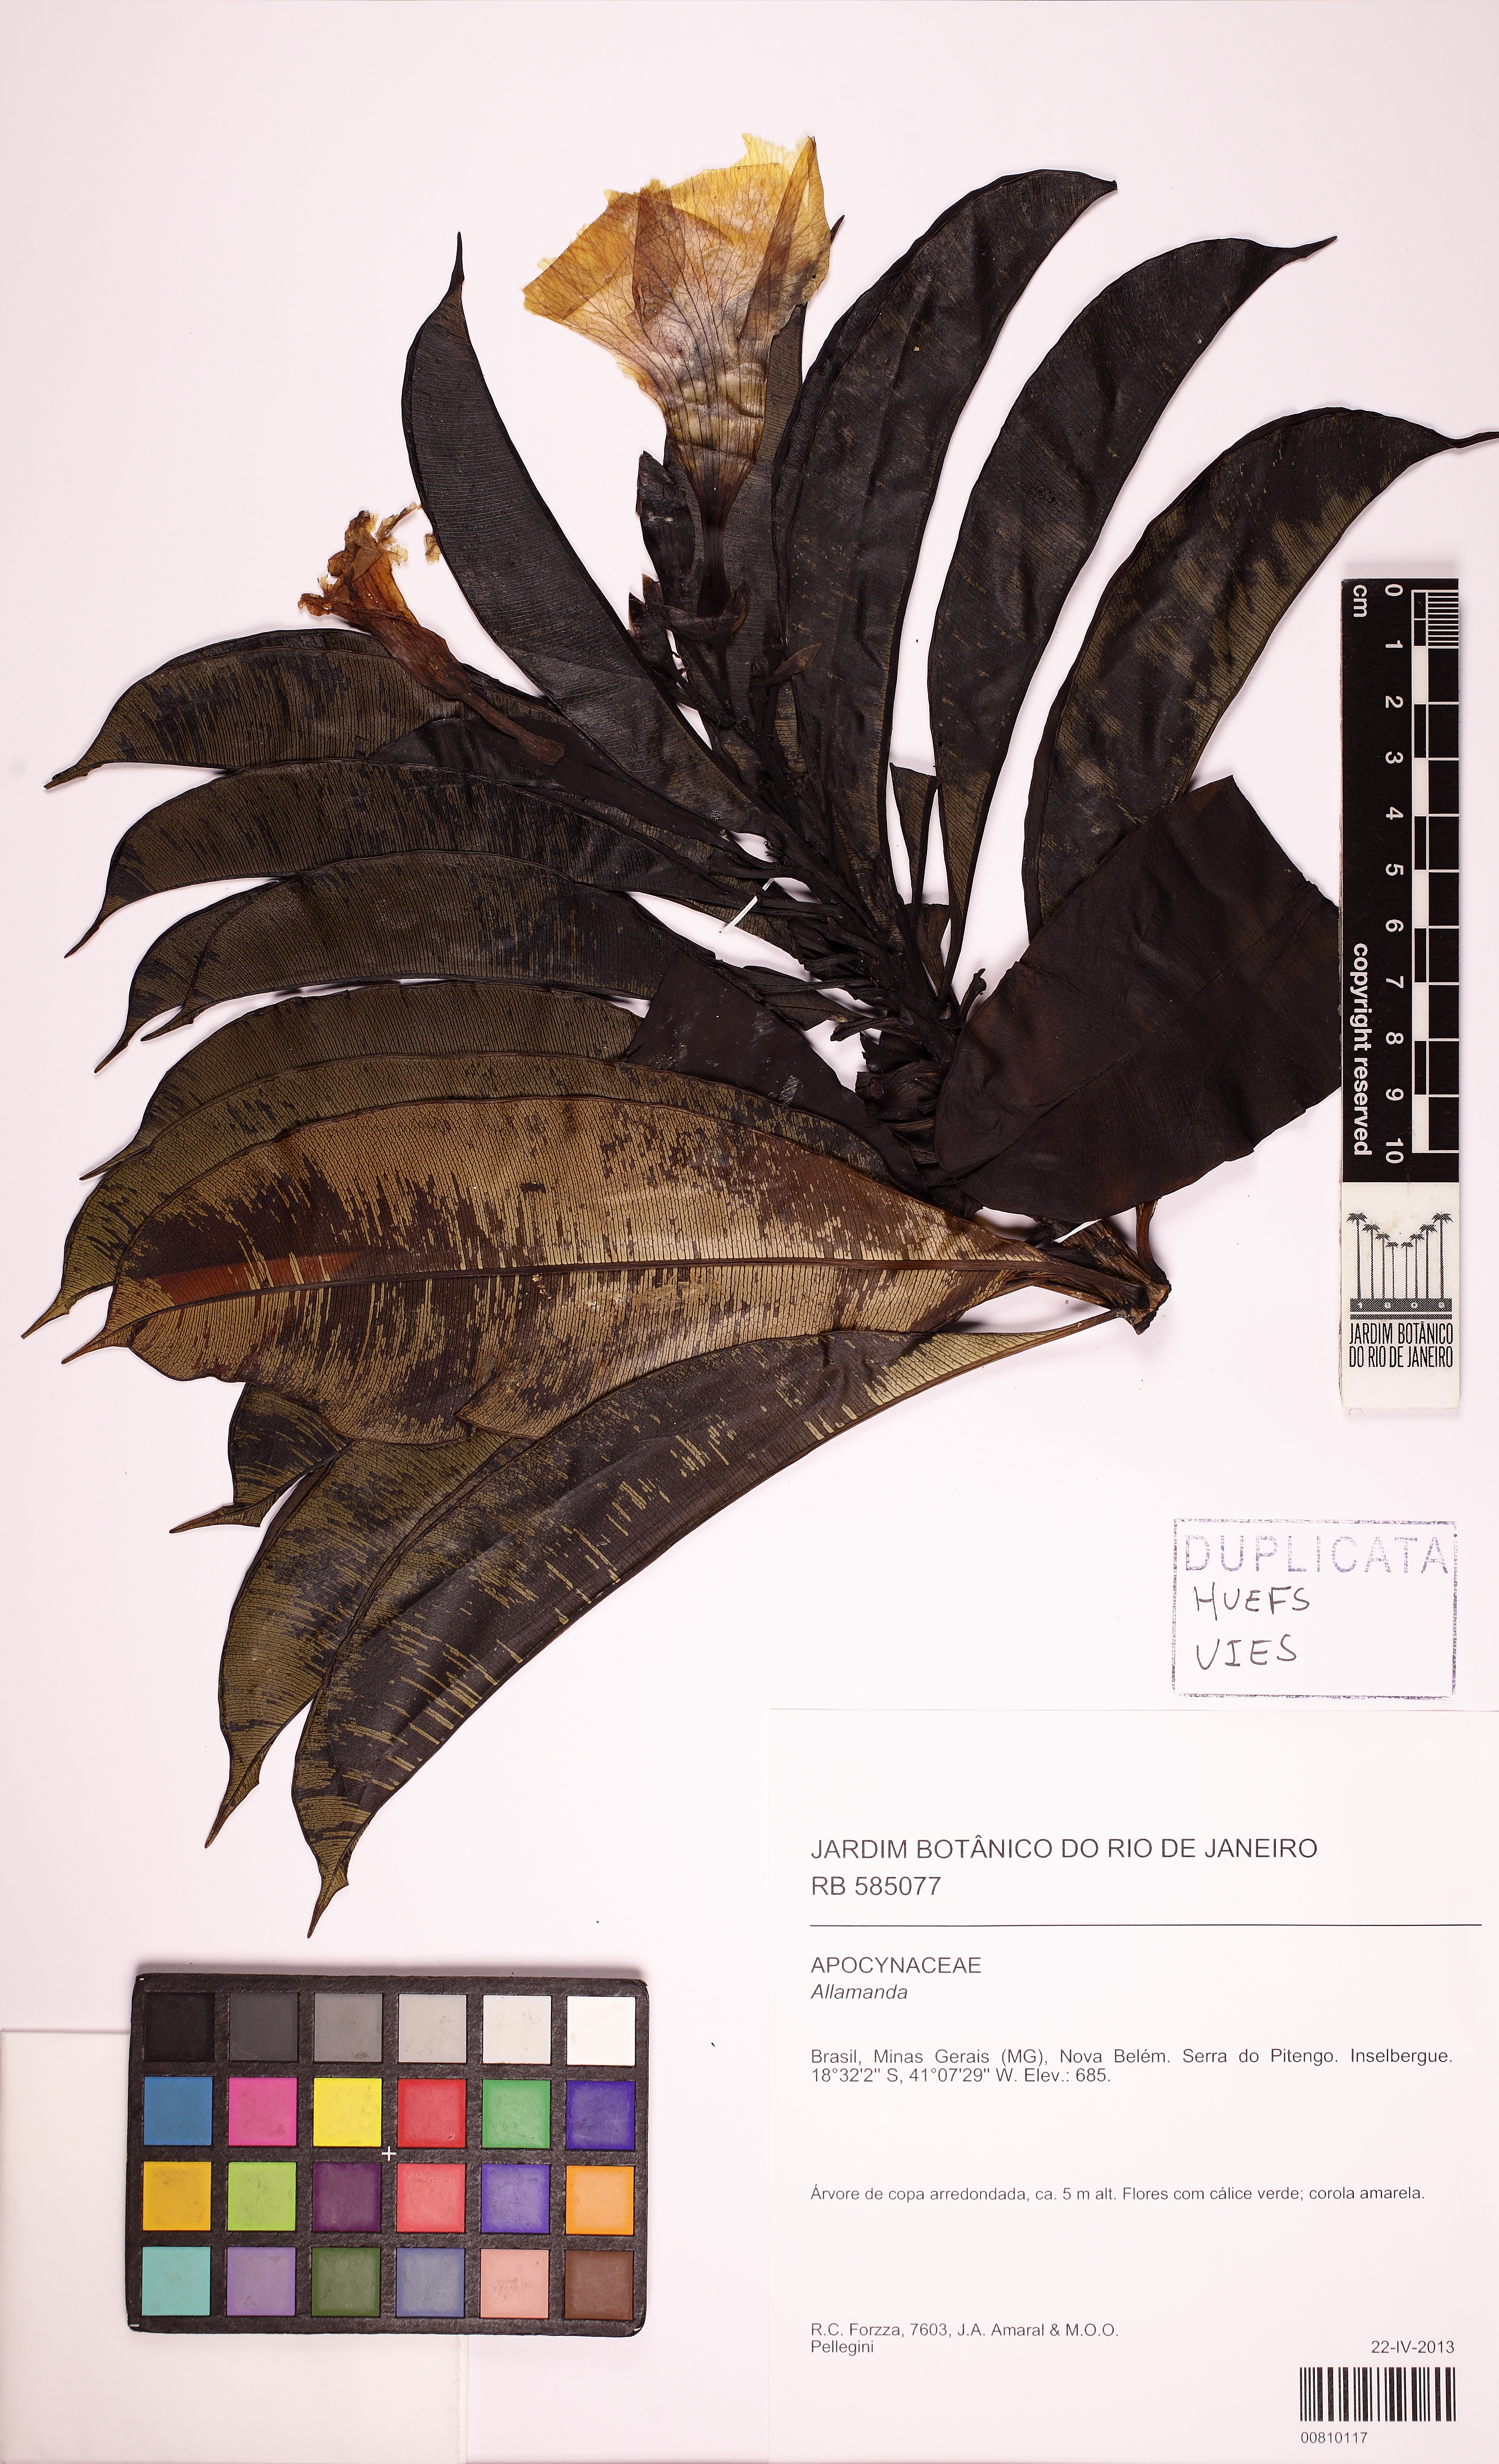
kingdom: Plantae
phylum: Tracheophyta
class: Magnoliopsida
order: Gentianales
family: Apocynaceae
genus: Allamanda
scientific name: Allamanda
